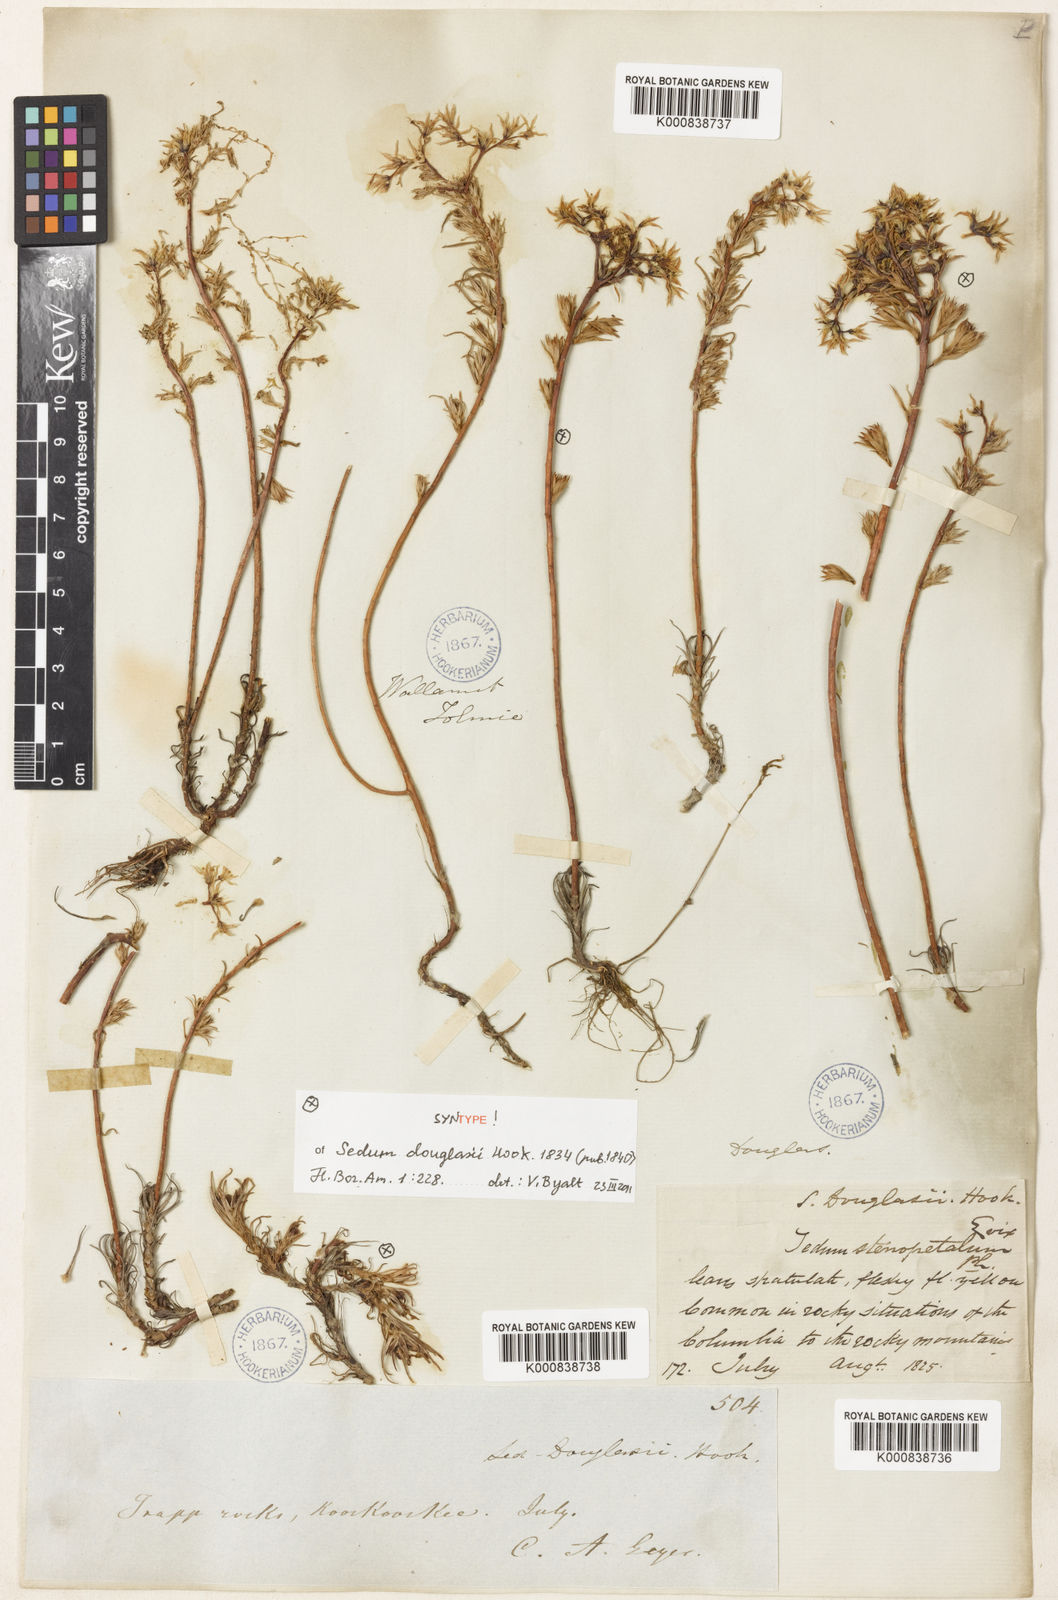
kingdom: Plantae
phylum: Tracheophyta
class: Magnoliopsida
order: Saxifragales
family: Crassulaceae
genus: Sedum
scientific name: Sedum stenopetalum
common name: Narrow-petaled stonecrop
